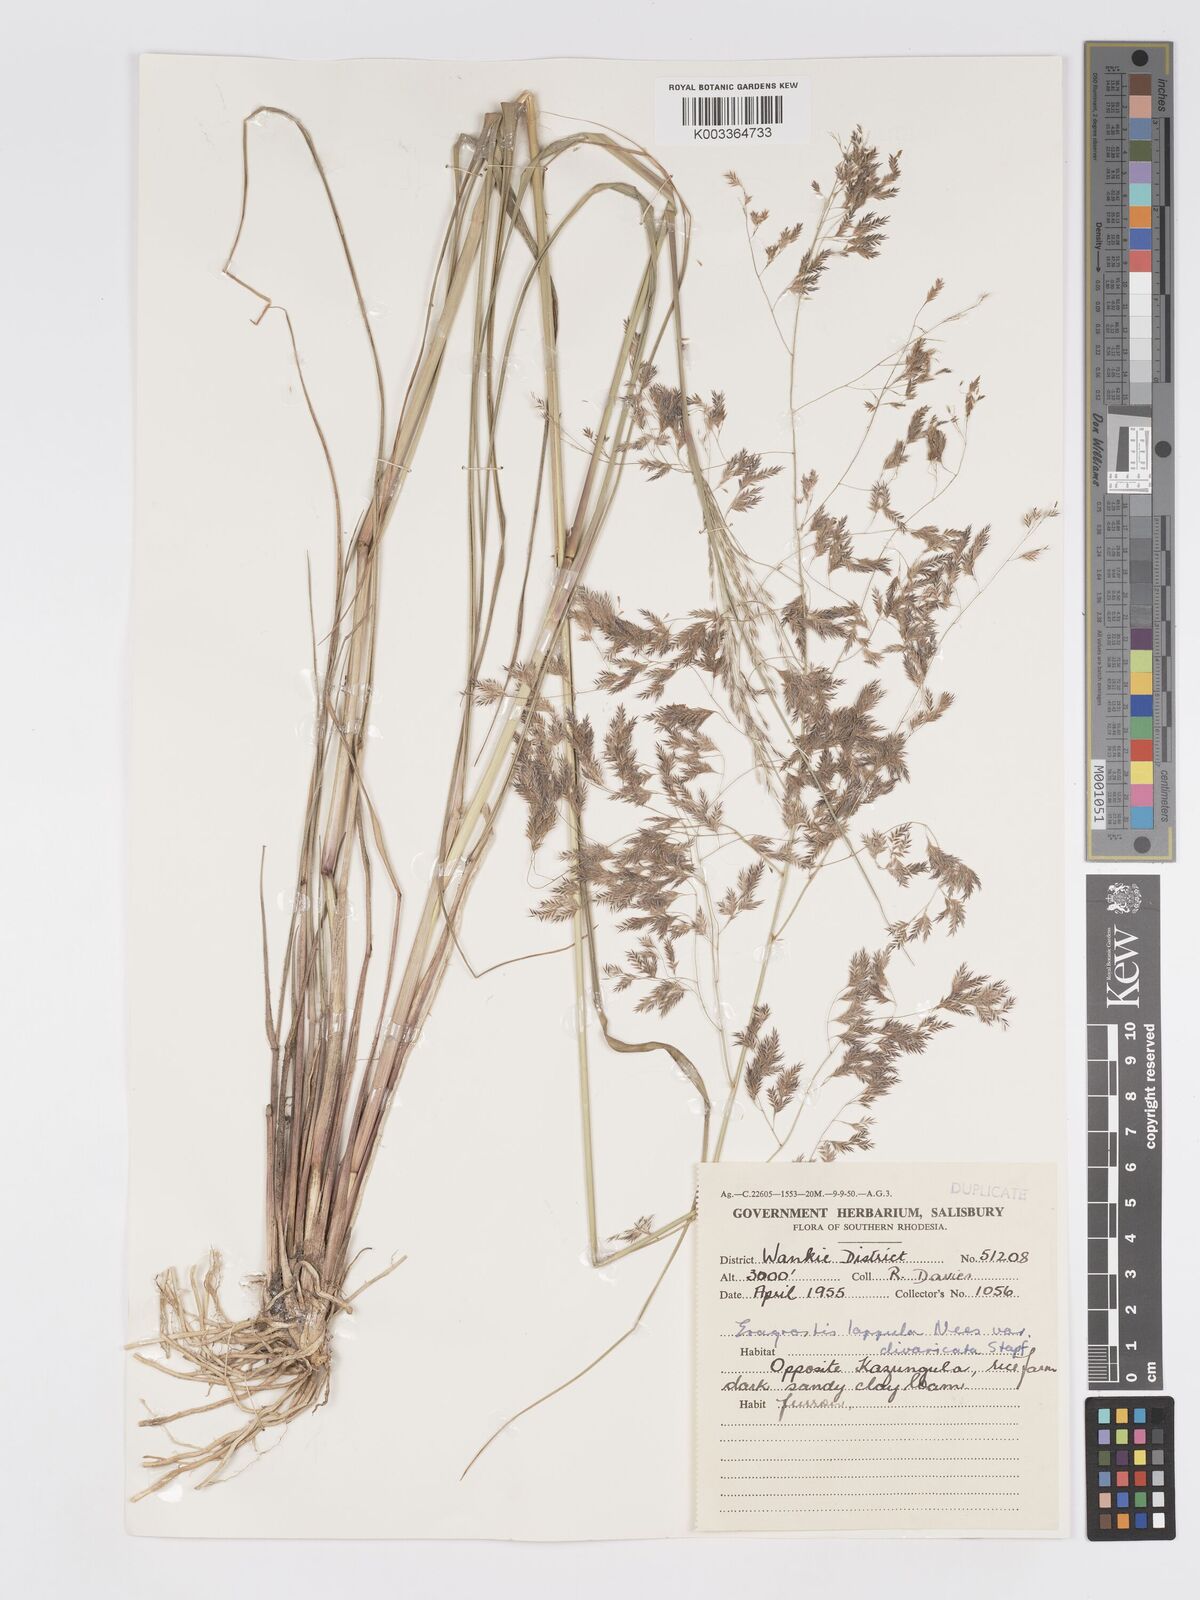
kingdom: Plantae
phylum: Tracheophyta
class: Liliopsida
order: Poales
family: Poaceae
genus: Eragrostis
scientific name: Eragrostis lappula
